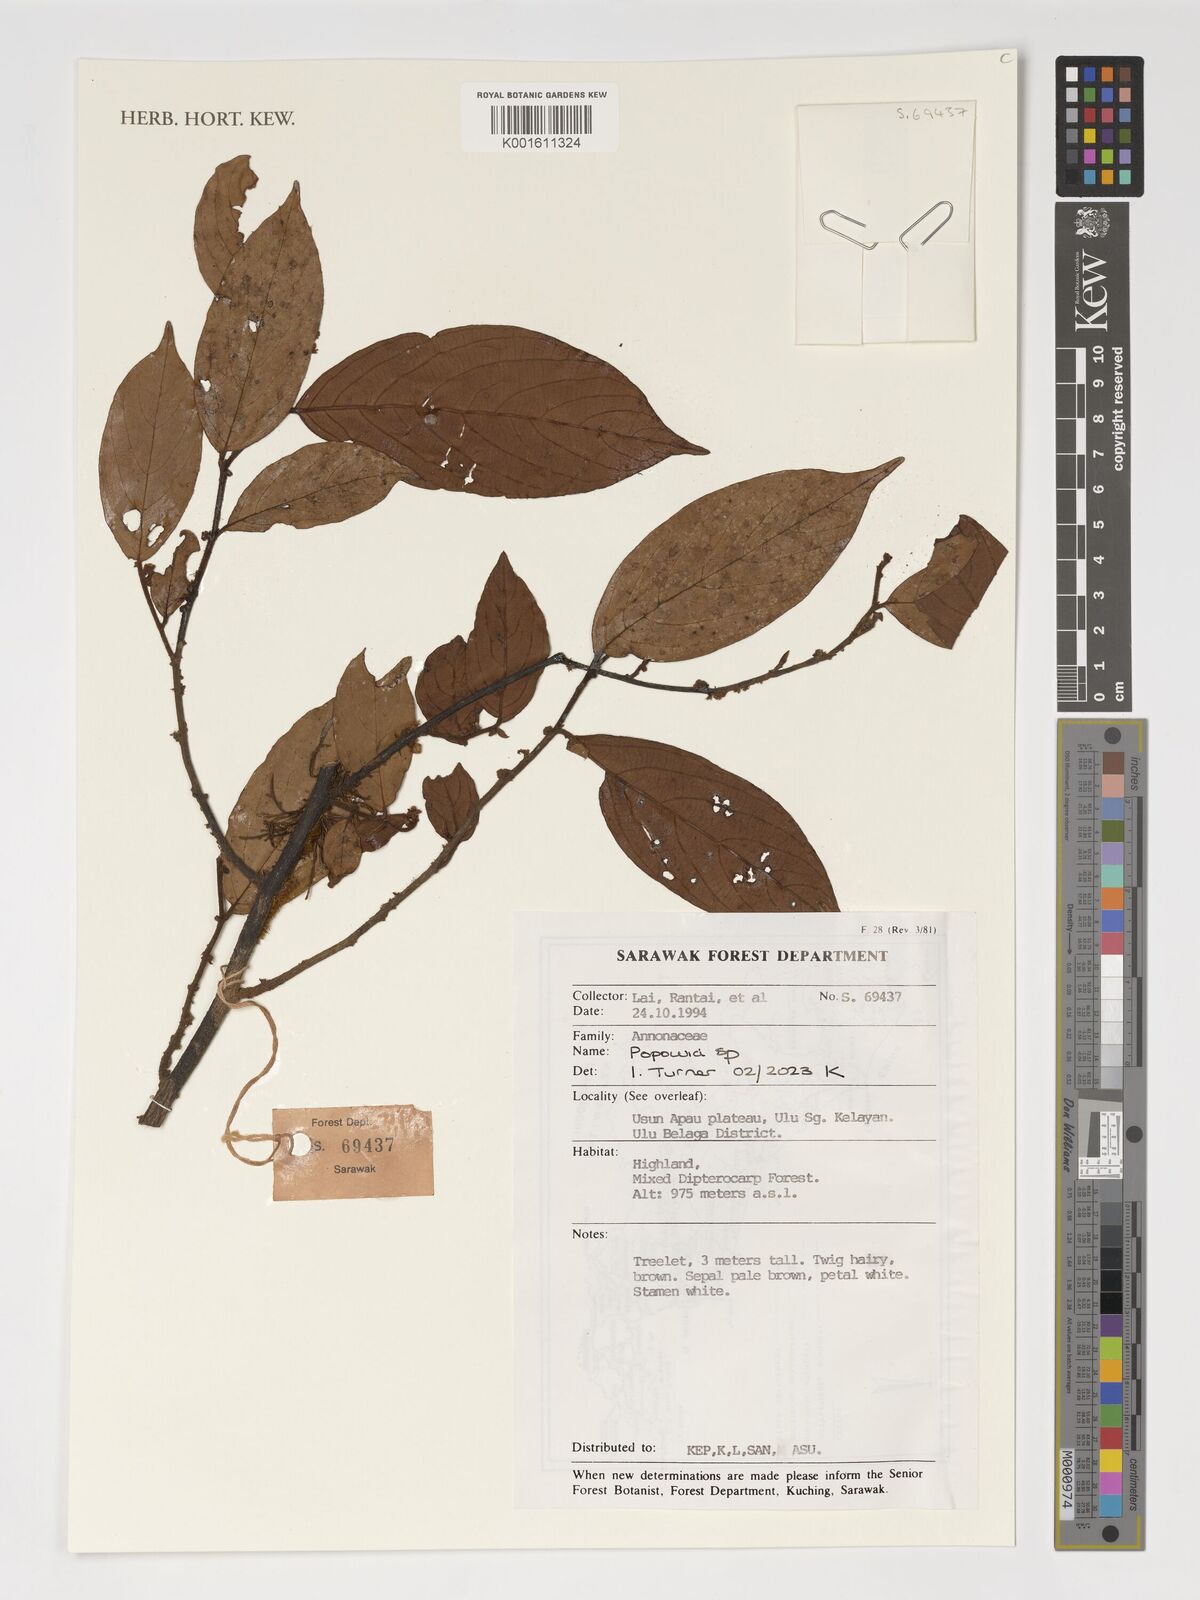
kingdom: Plantae
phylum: Tracheophyta
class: Magnoliopsida
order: Magnoliales
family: Annonaceae
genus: Popowia
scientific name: Popowia
